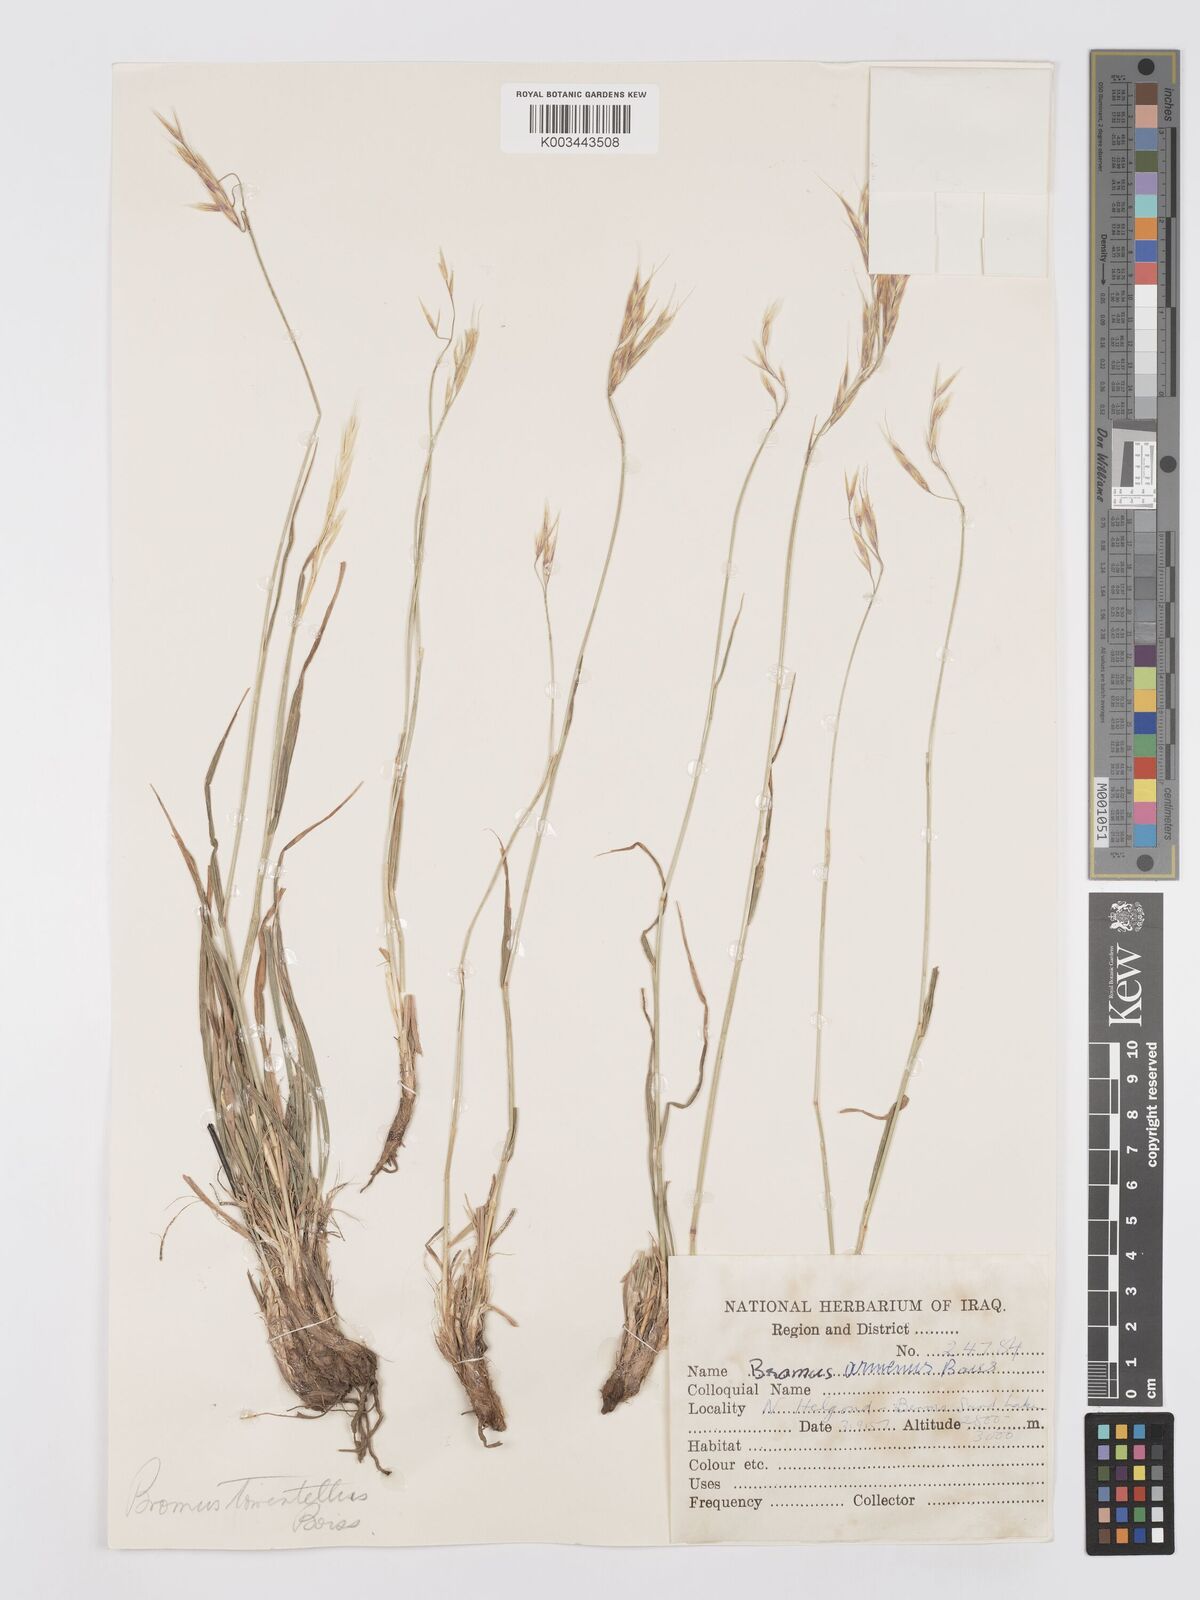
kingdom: Plantae
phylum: Tracheophyta
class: Liliopsida
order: Poales
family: Poaceae
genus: Bromus
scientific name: Bromus tomentellus
